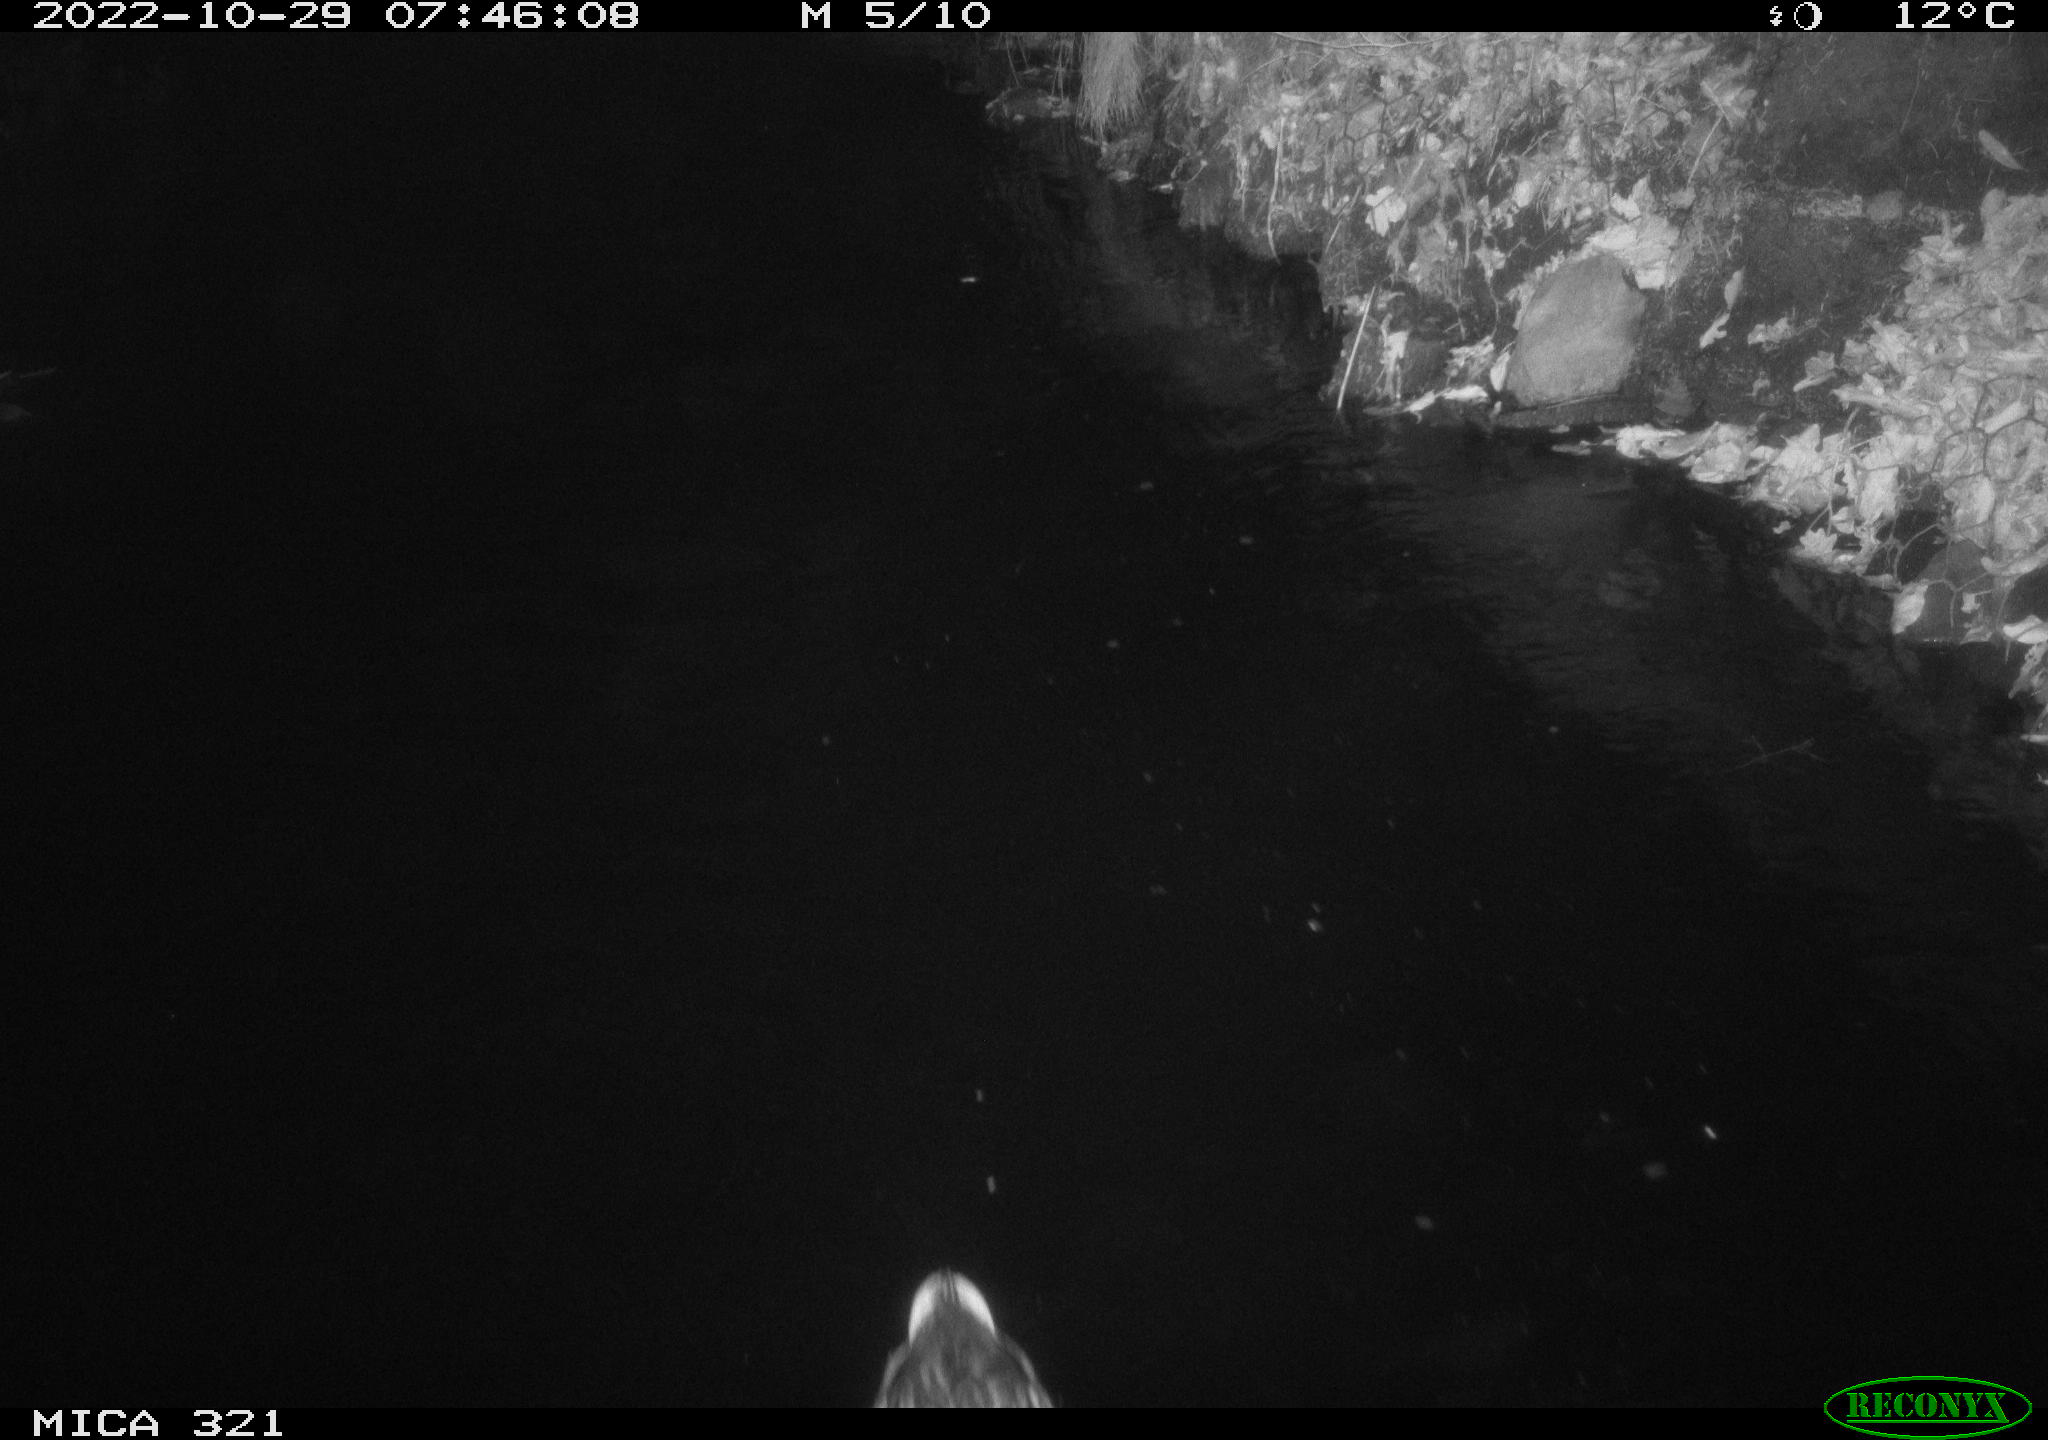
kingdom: Animalia
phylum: Chordata
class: Aves
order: Anseriformes
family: Anatidae
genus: Anas
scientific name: Anas
